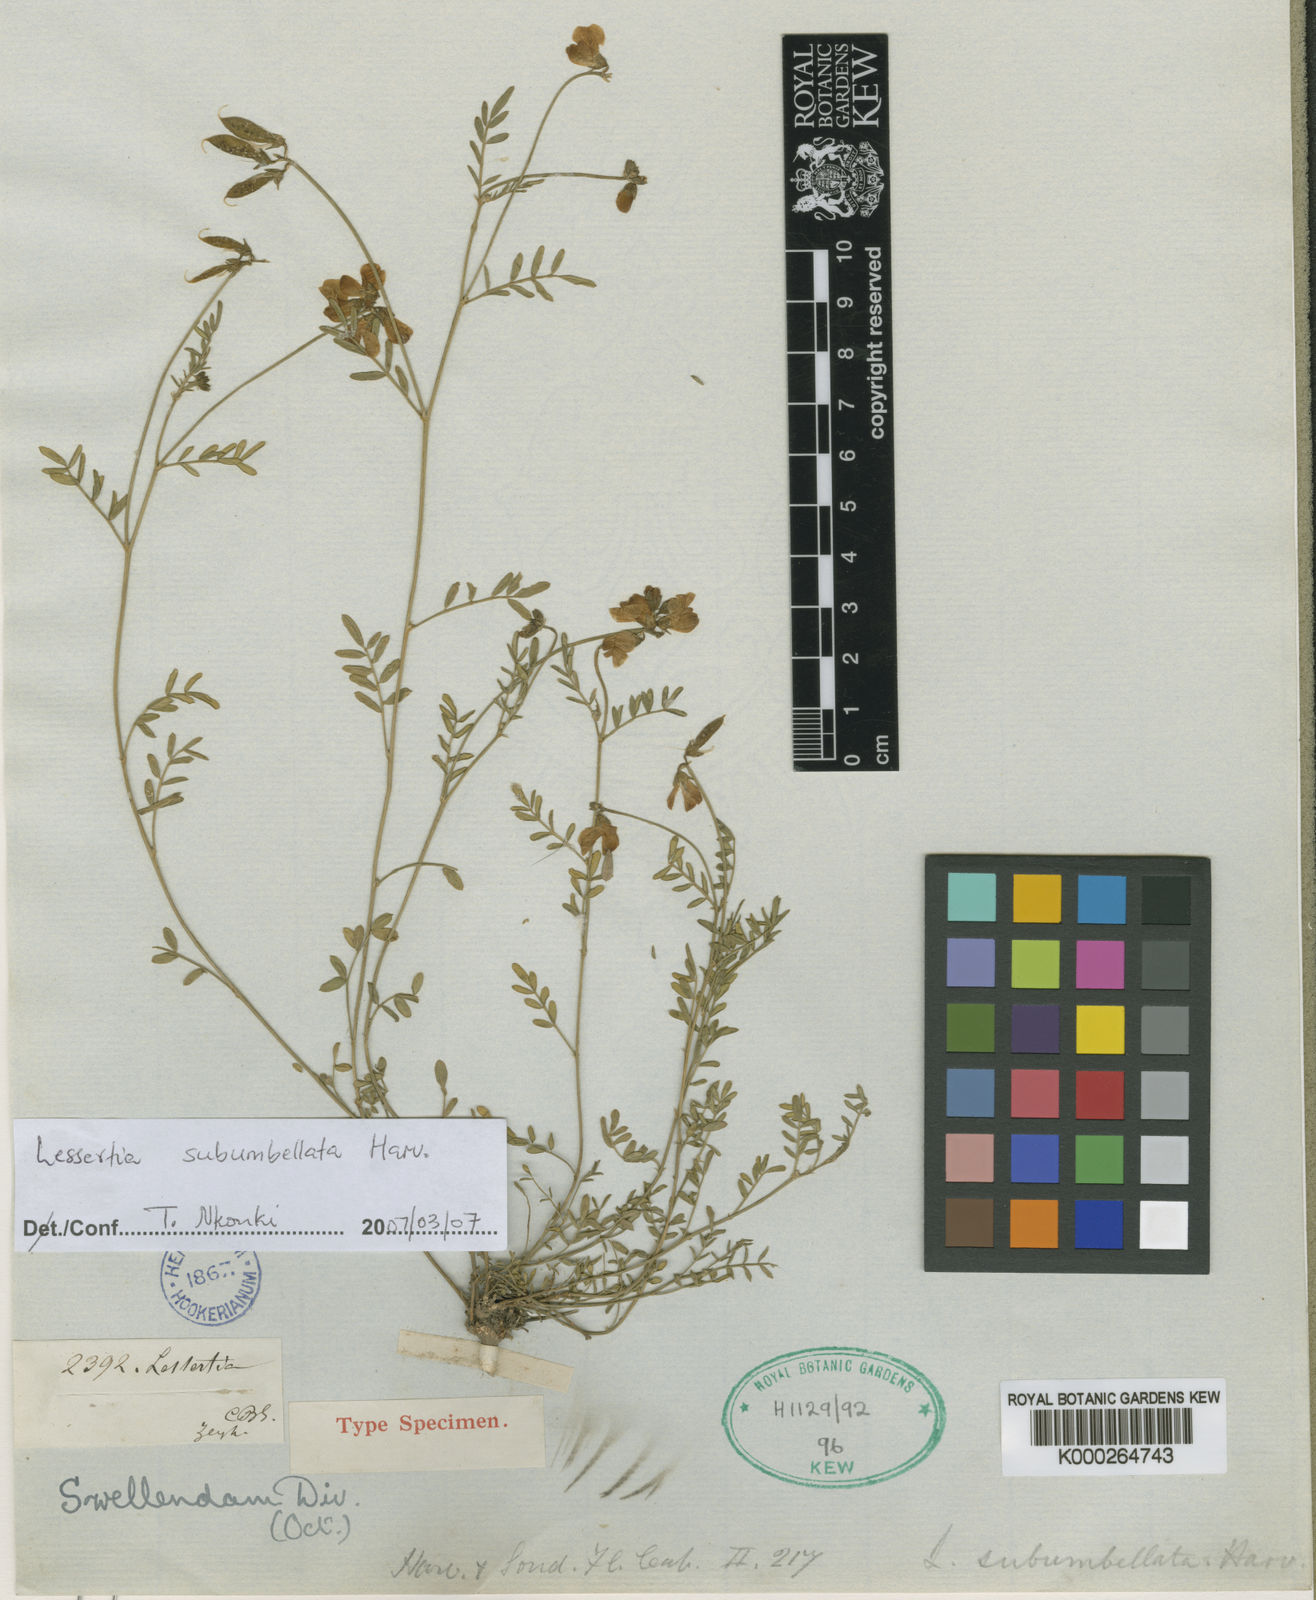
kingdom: Plantae
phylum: Tracheophyta
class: Magnoliopsida
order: Fabales
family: Fabaceae
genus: Lessertia
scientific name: Lessertia subumbellata
